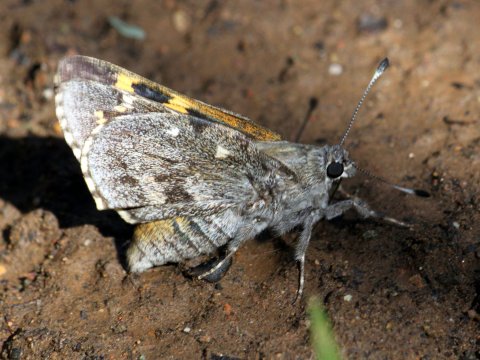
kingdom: Animalia
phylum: Arthropoda
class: Insecta
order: Lepidoptera
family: Hesperiidae
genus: Agathymus
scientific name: Agathymus aryxna
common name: Arizona Giant-Skipper
